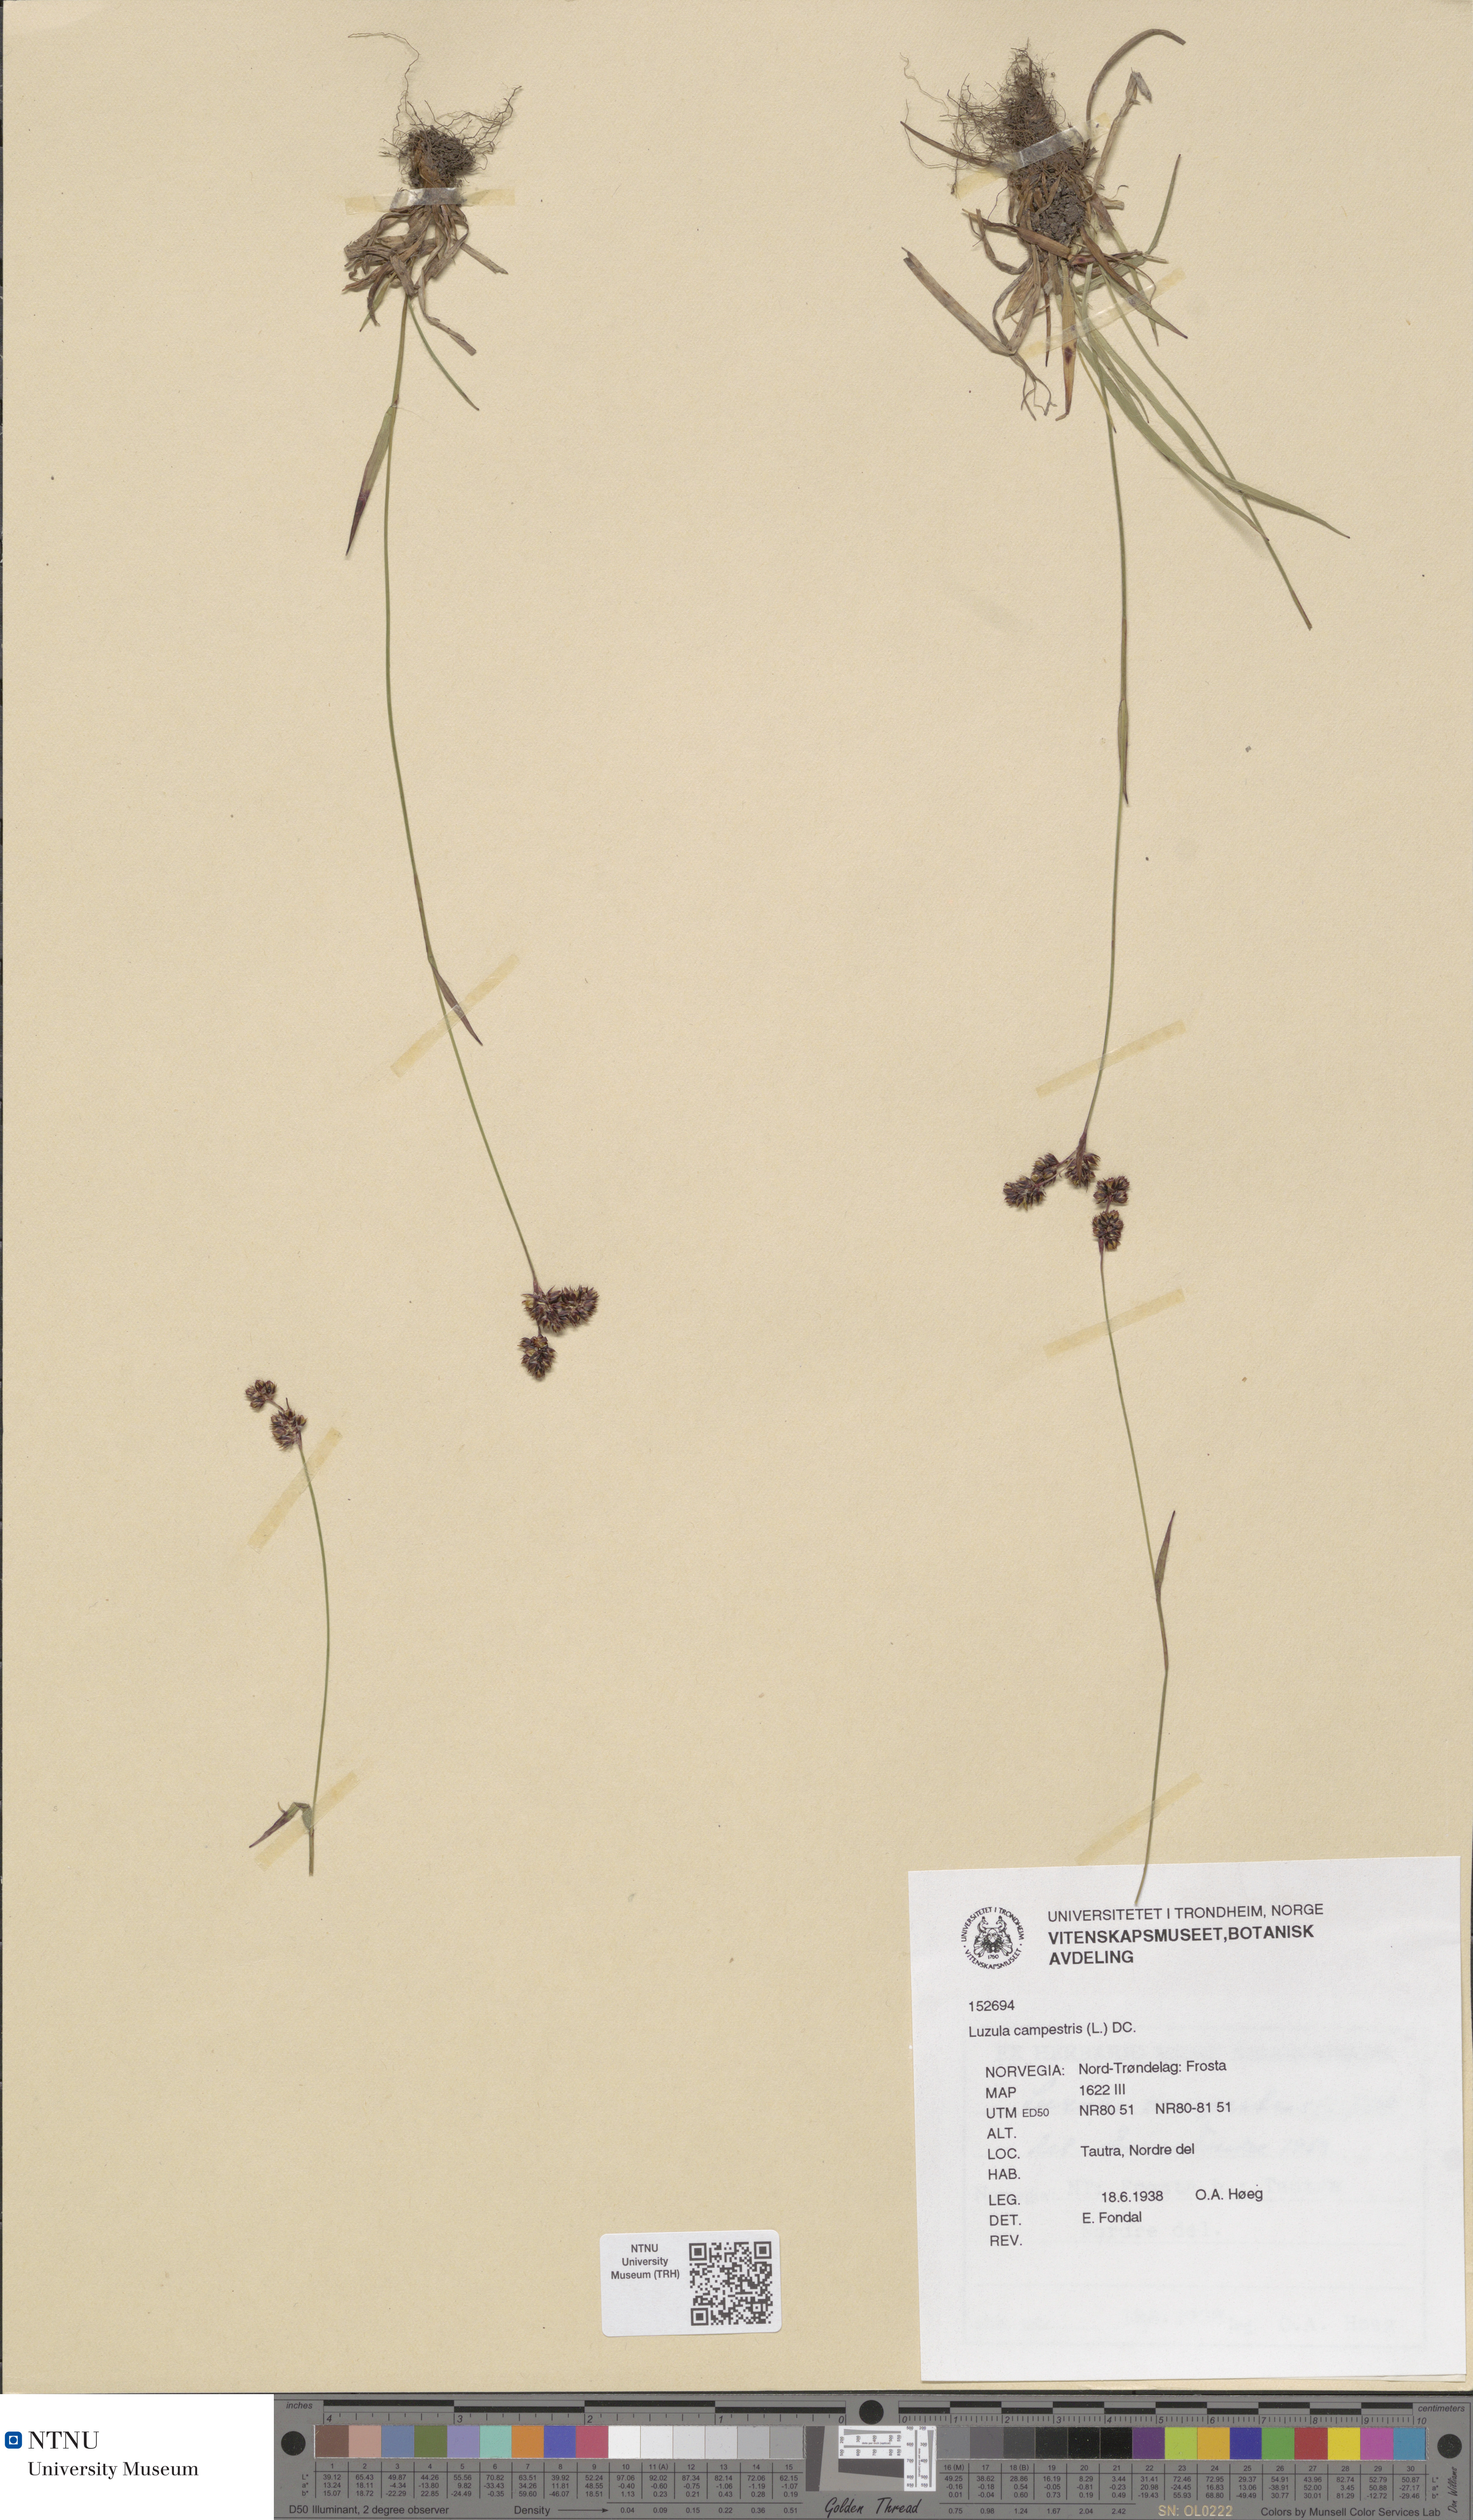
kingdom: Plantae
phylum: Tracheophyta
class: Liliopsida
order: Poales
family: Juncaceae
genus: Luzula
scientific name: Luzula campestris
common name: Field wood-rush
